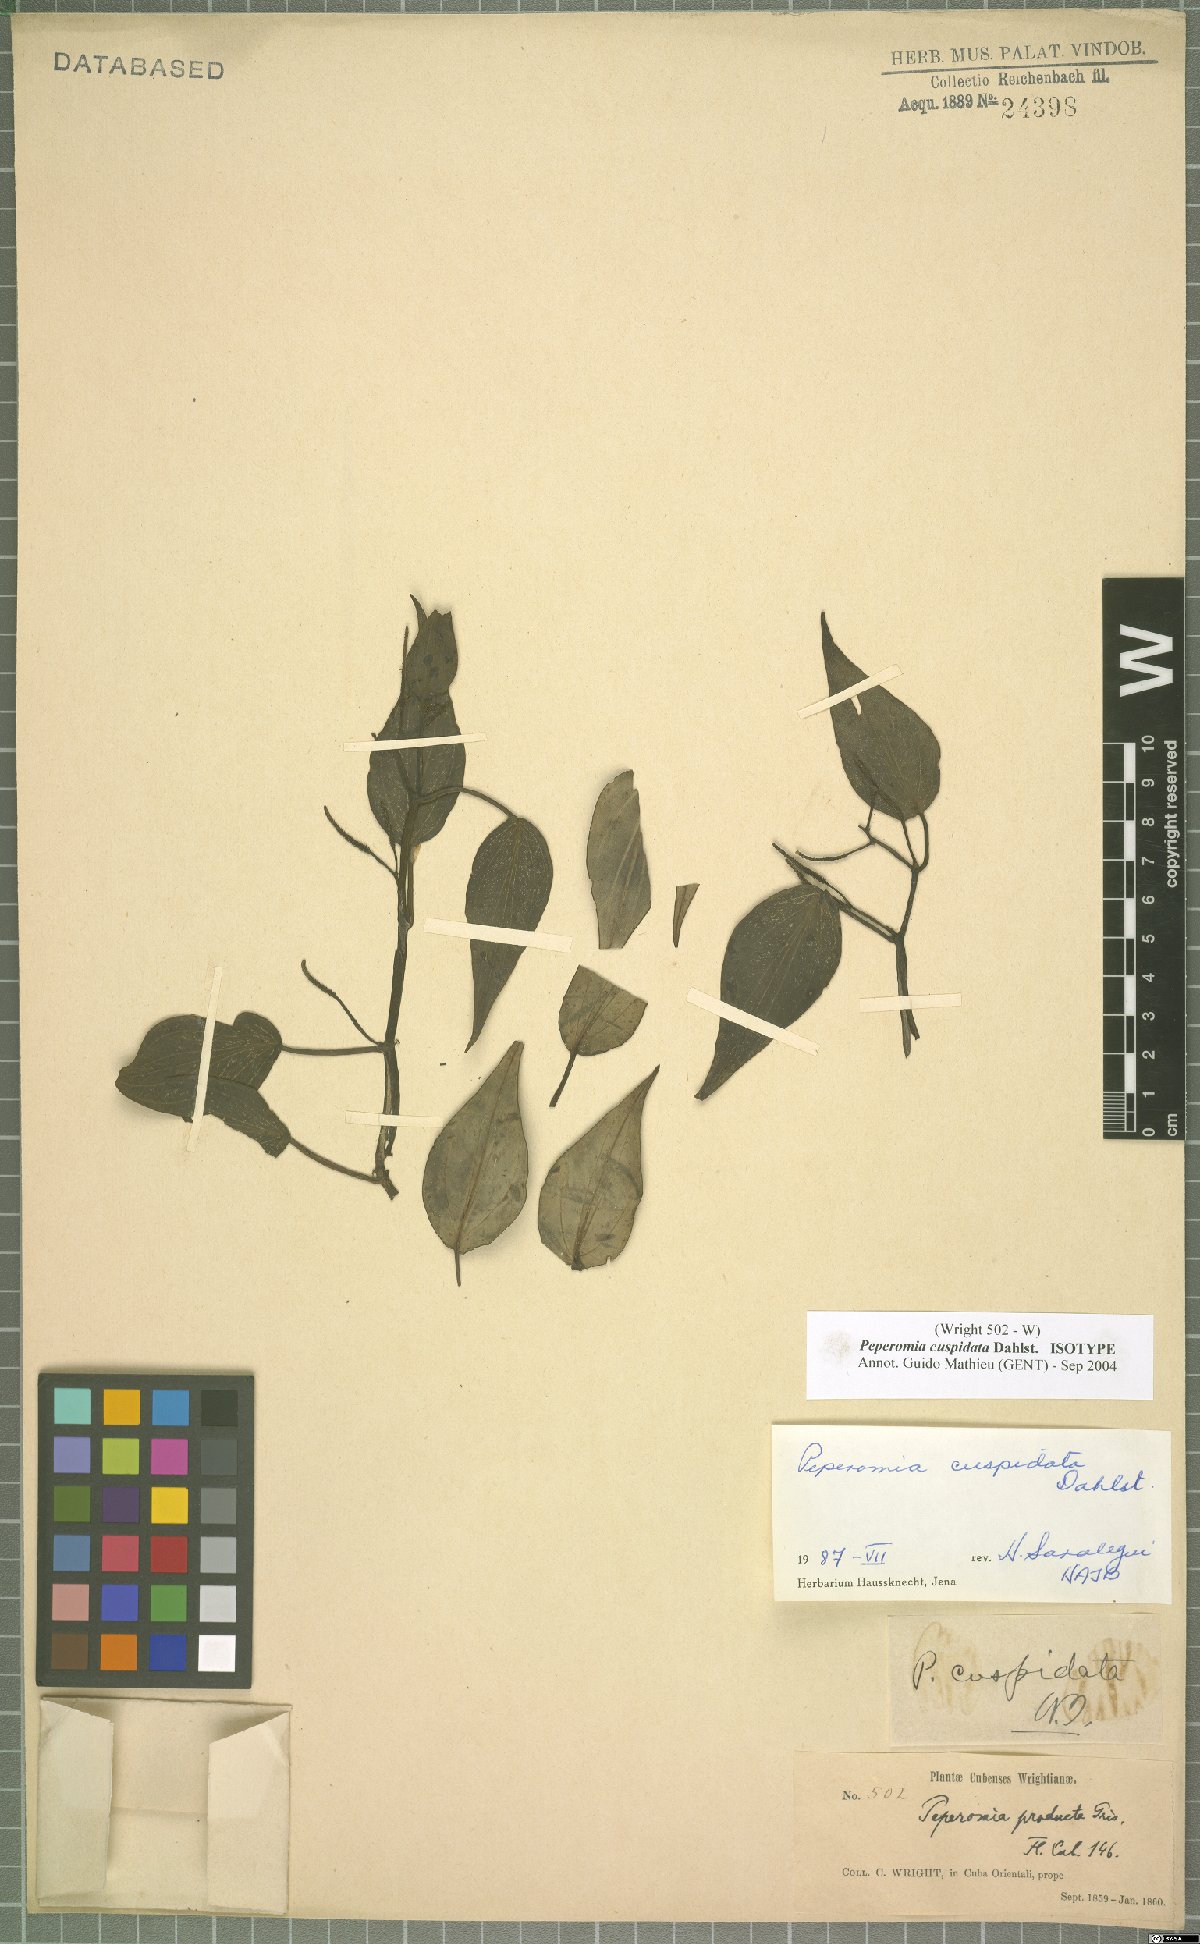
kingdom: Plantae
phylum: Tracheophyta
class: Magnoliopsida
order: Piperales
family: Piperaceae
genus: Peperomia
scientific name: Peperomia cuspidata
